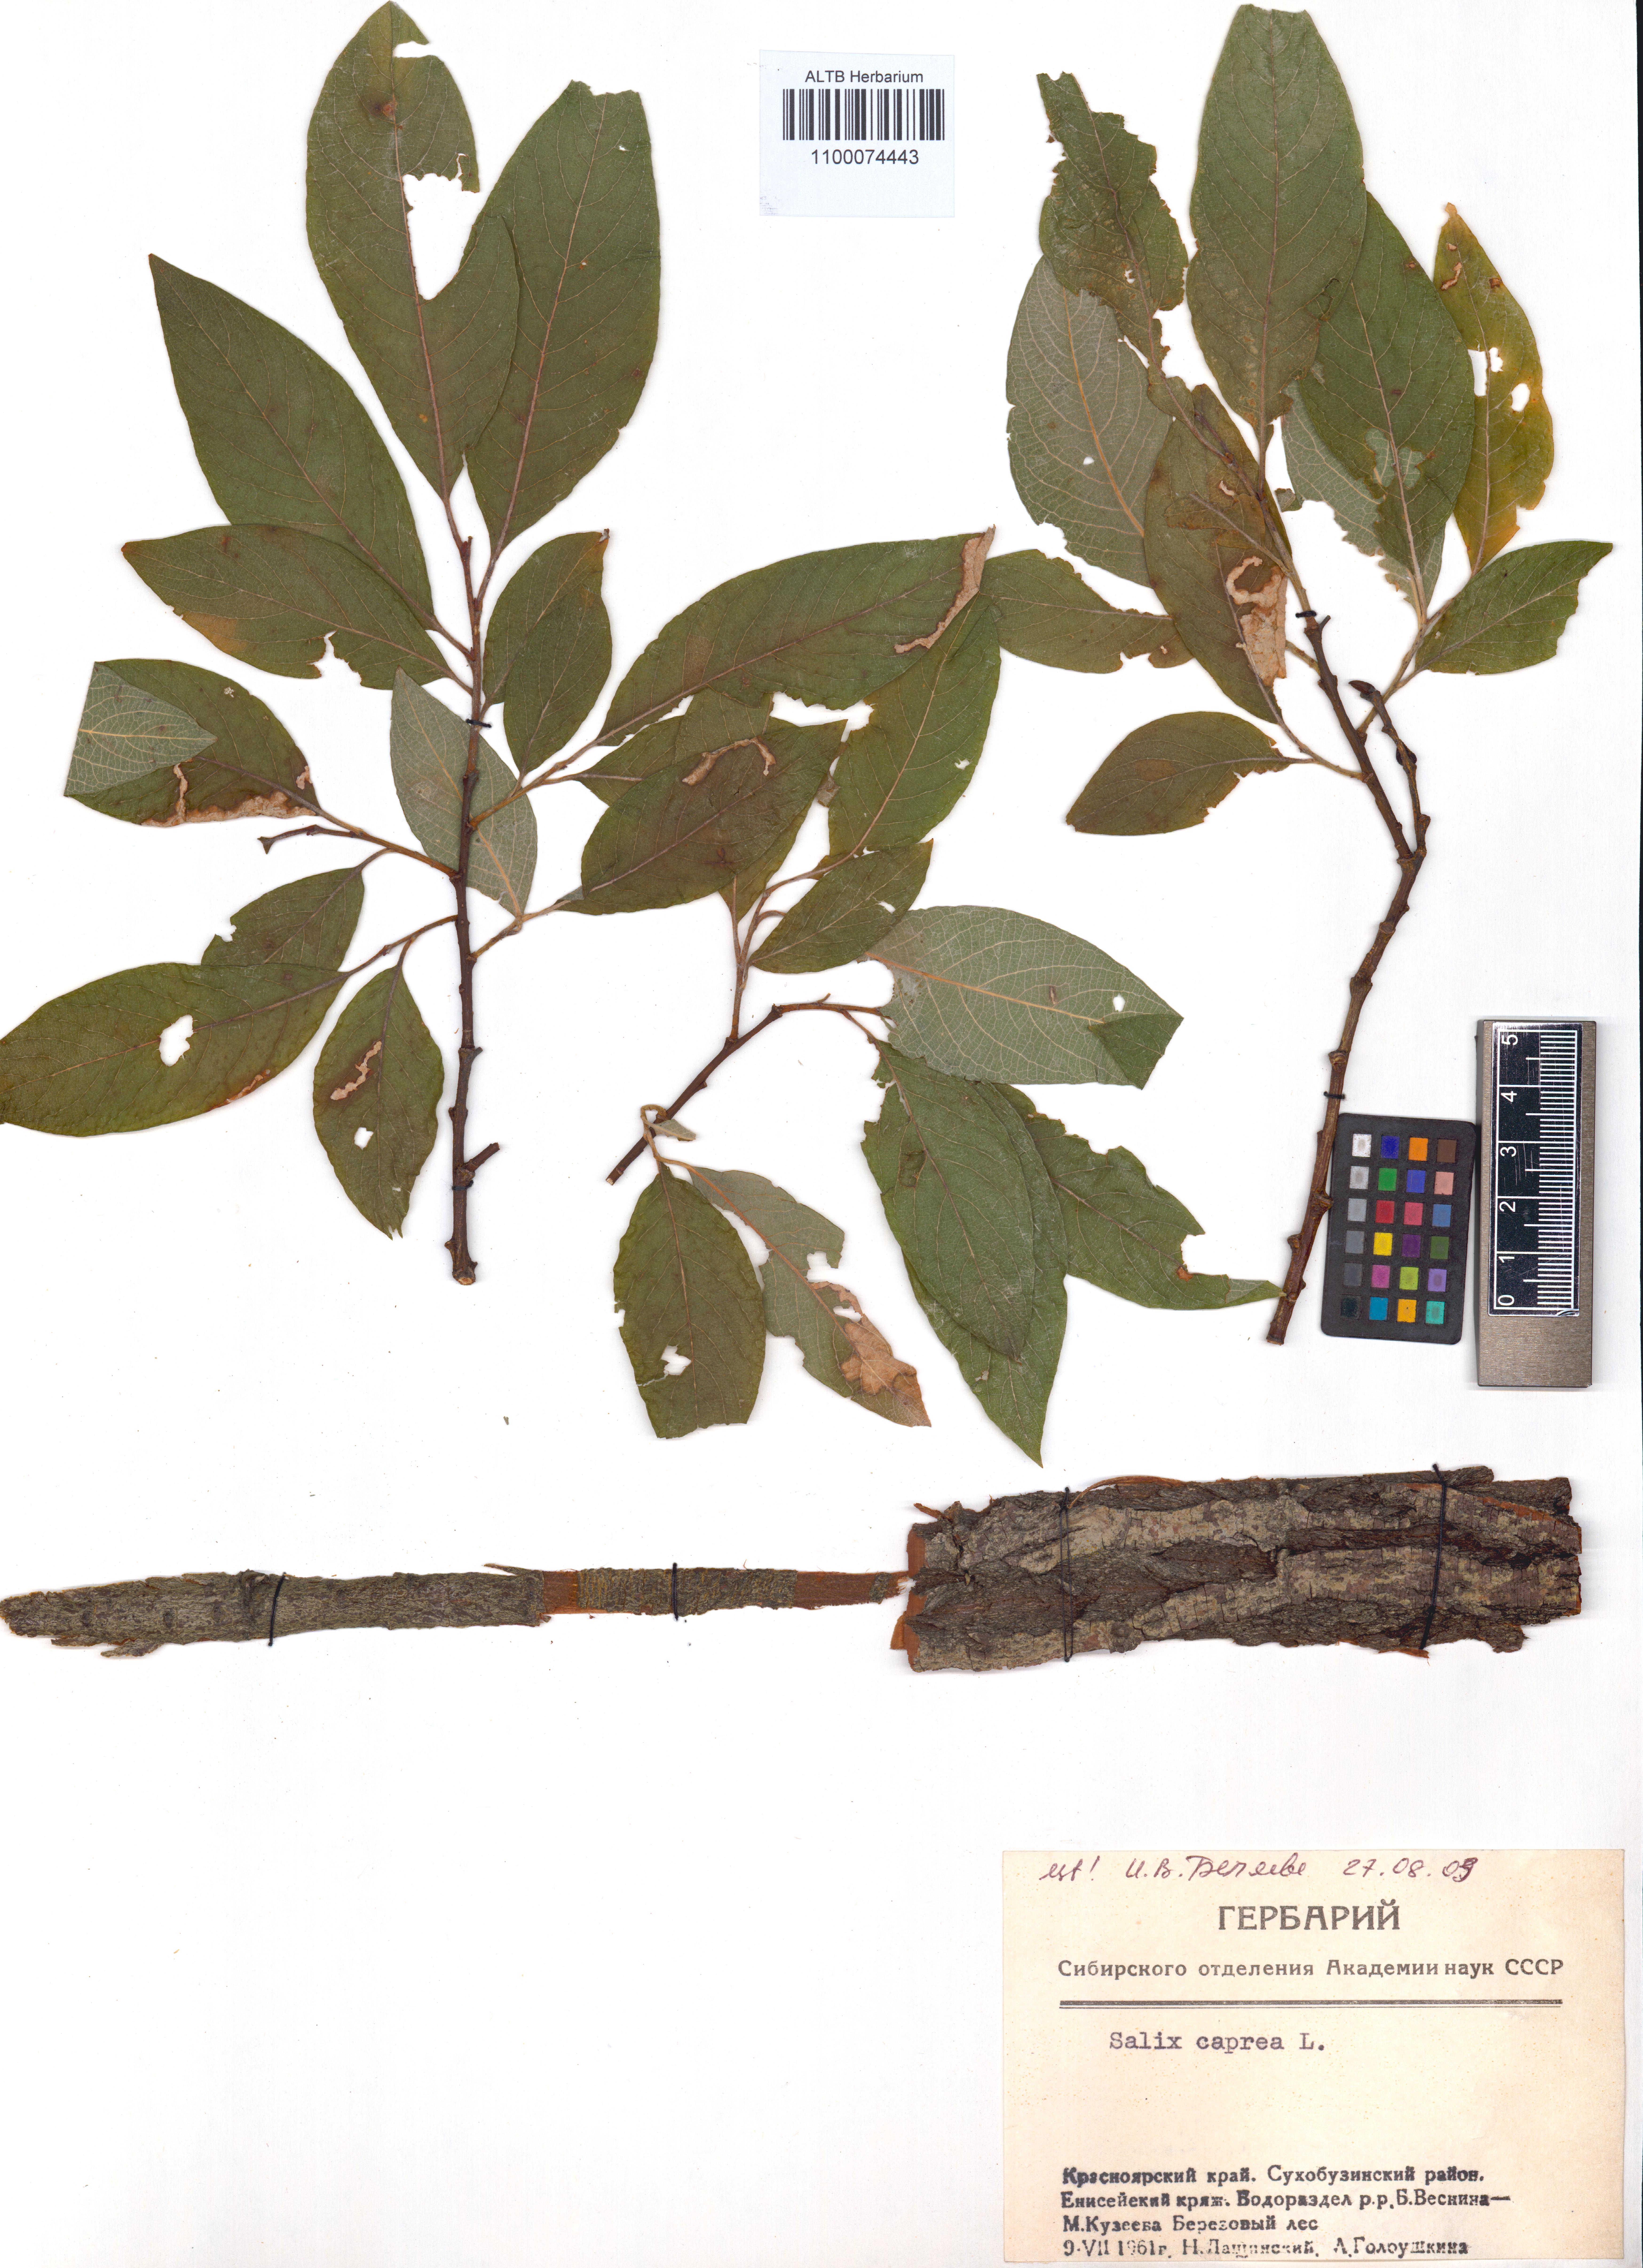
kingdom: Plantae
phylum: Tracheophyta
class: Magnoliopsida
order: Malpighiales
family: Salicaceae
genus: Salix
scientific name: Salix caprea
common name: Goat willow
